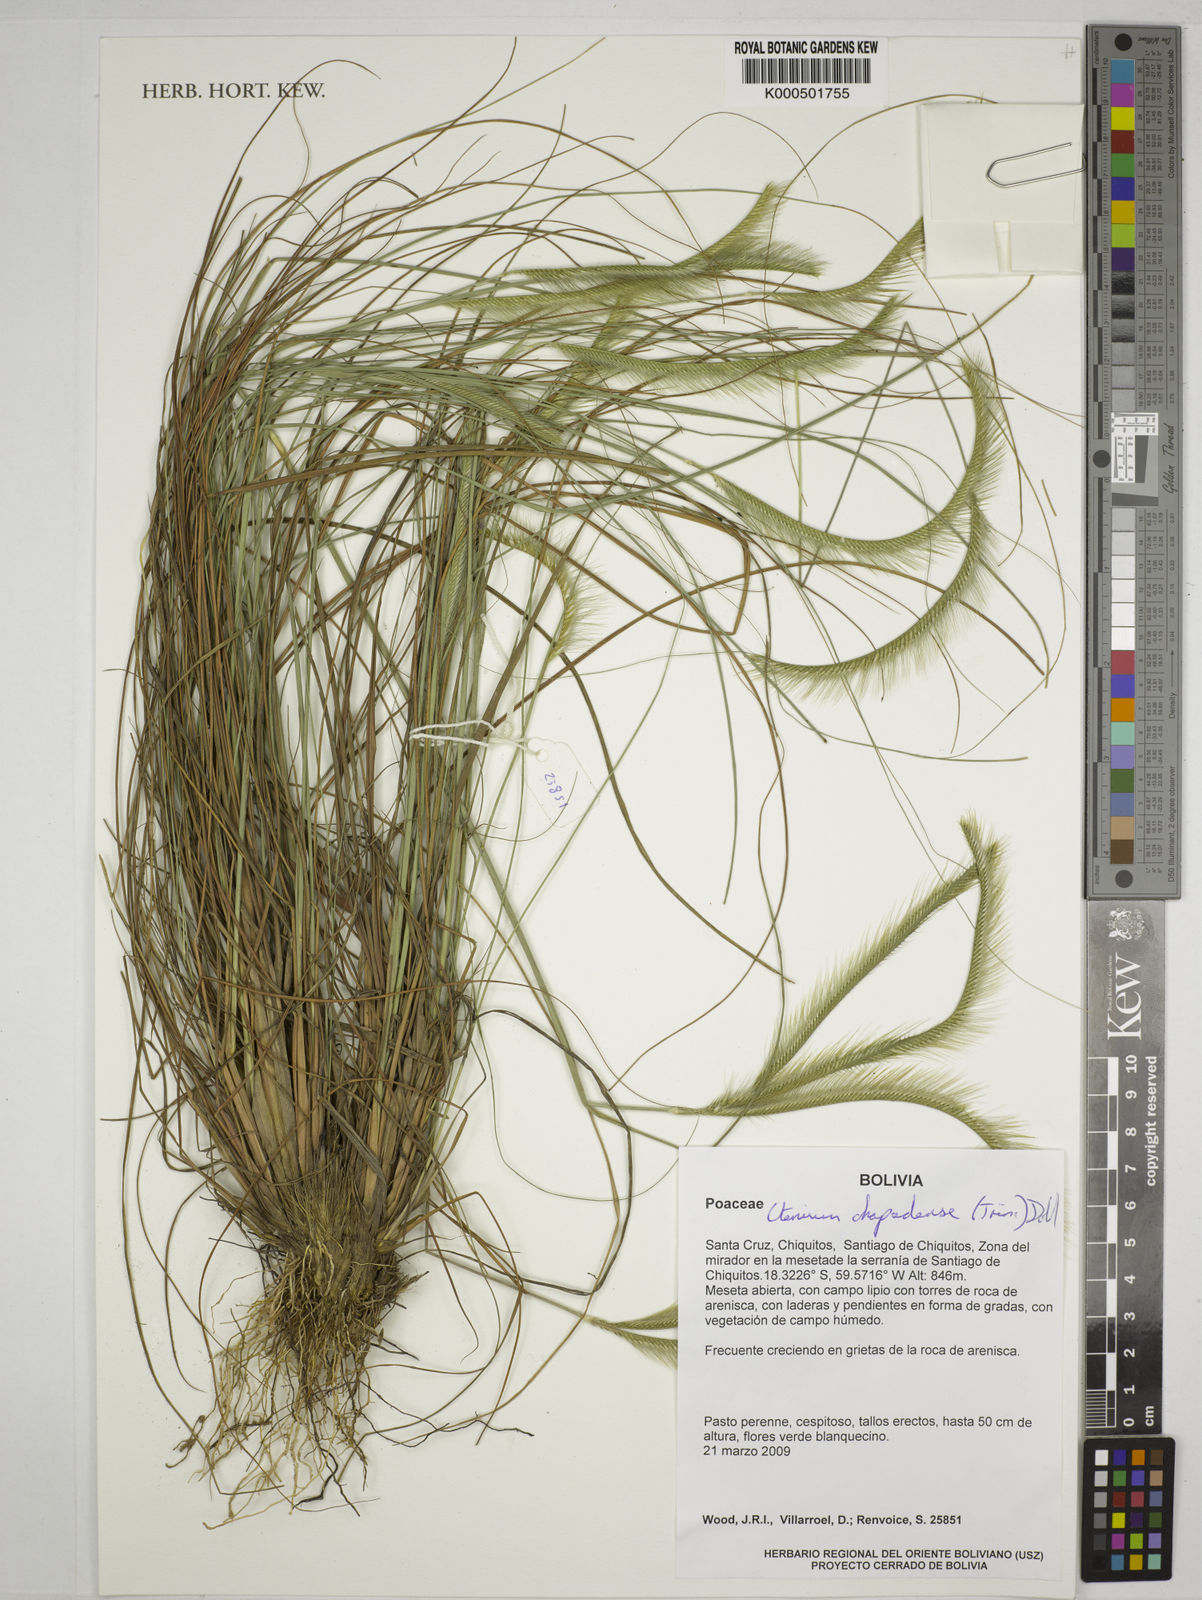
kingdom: Plantae
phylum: Tracheophyta
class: Liliopsida
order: Poales
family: Poaceae
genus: Ctenium
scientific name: Ctenium
